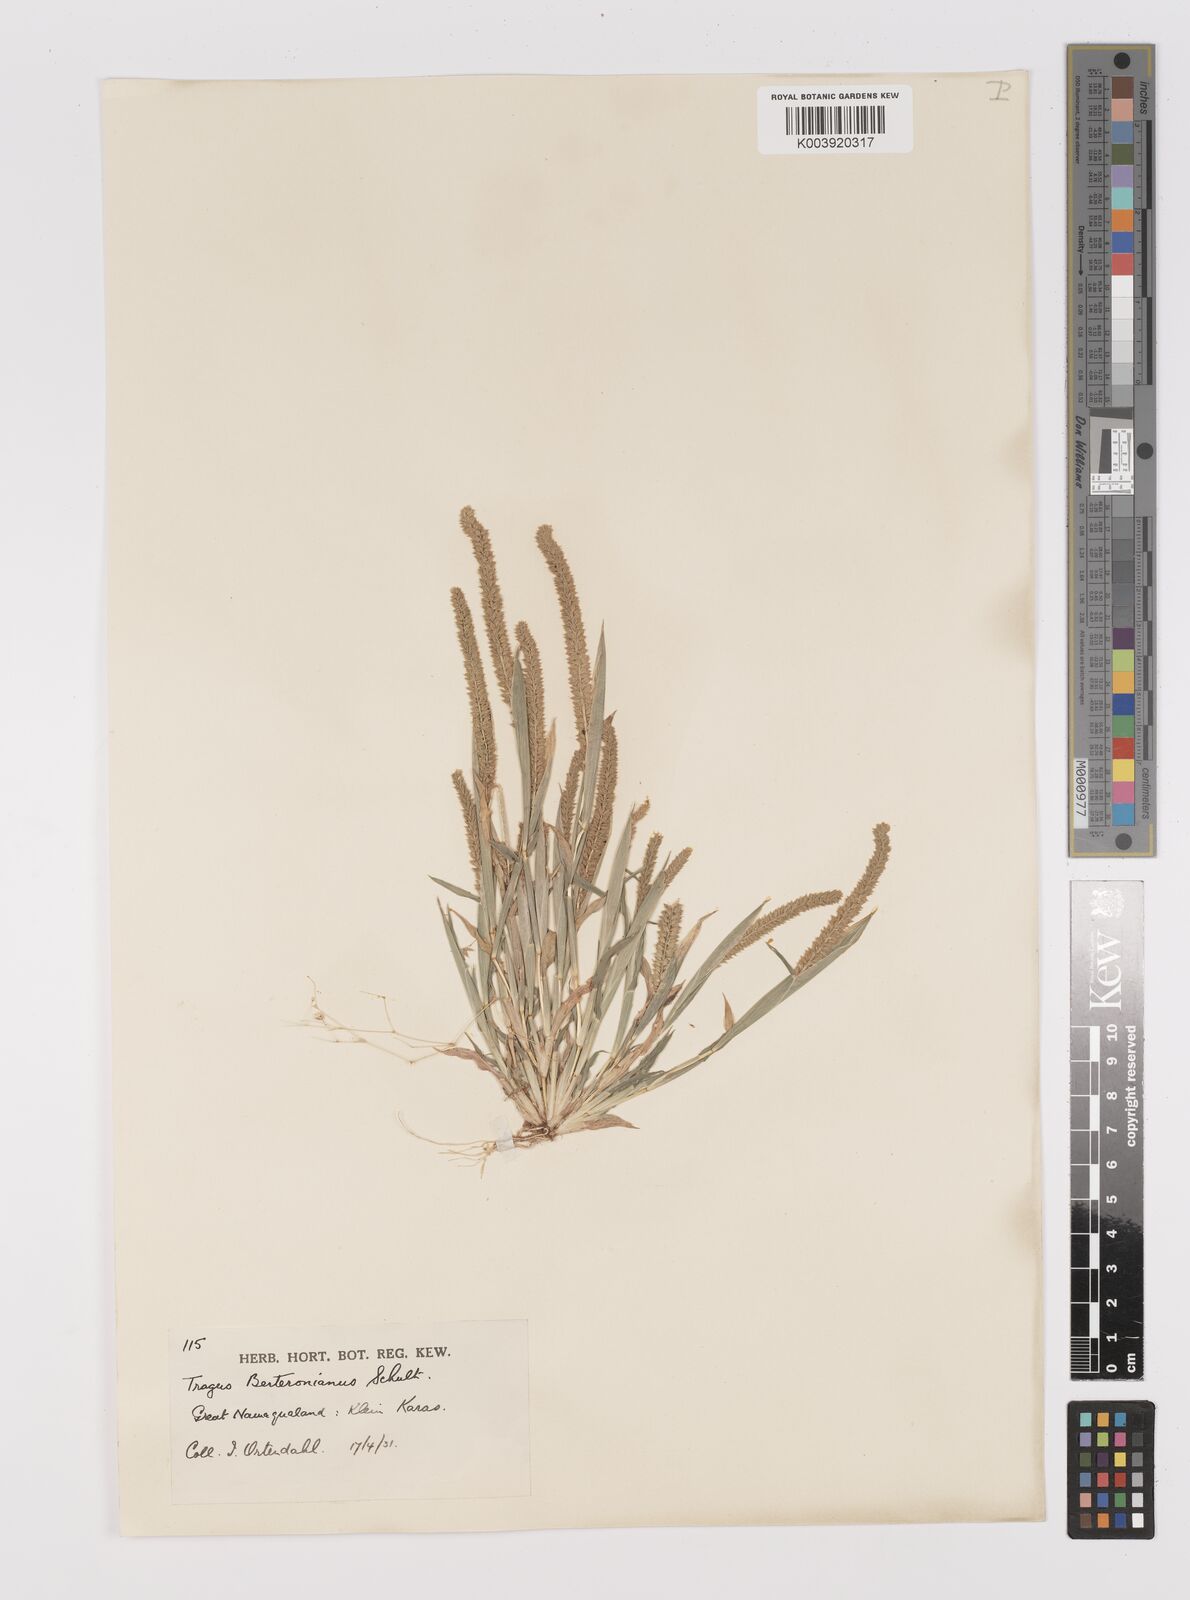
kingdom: Plantae
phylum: Tracheophyta
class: Liliopsida
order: Poales
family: Poaceae
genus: Tragus
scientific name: Tragus berteronianus
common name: African bur-grass
